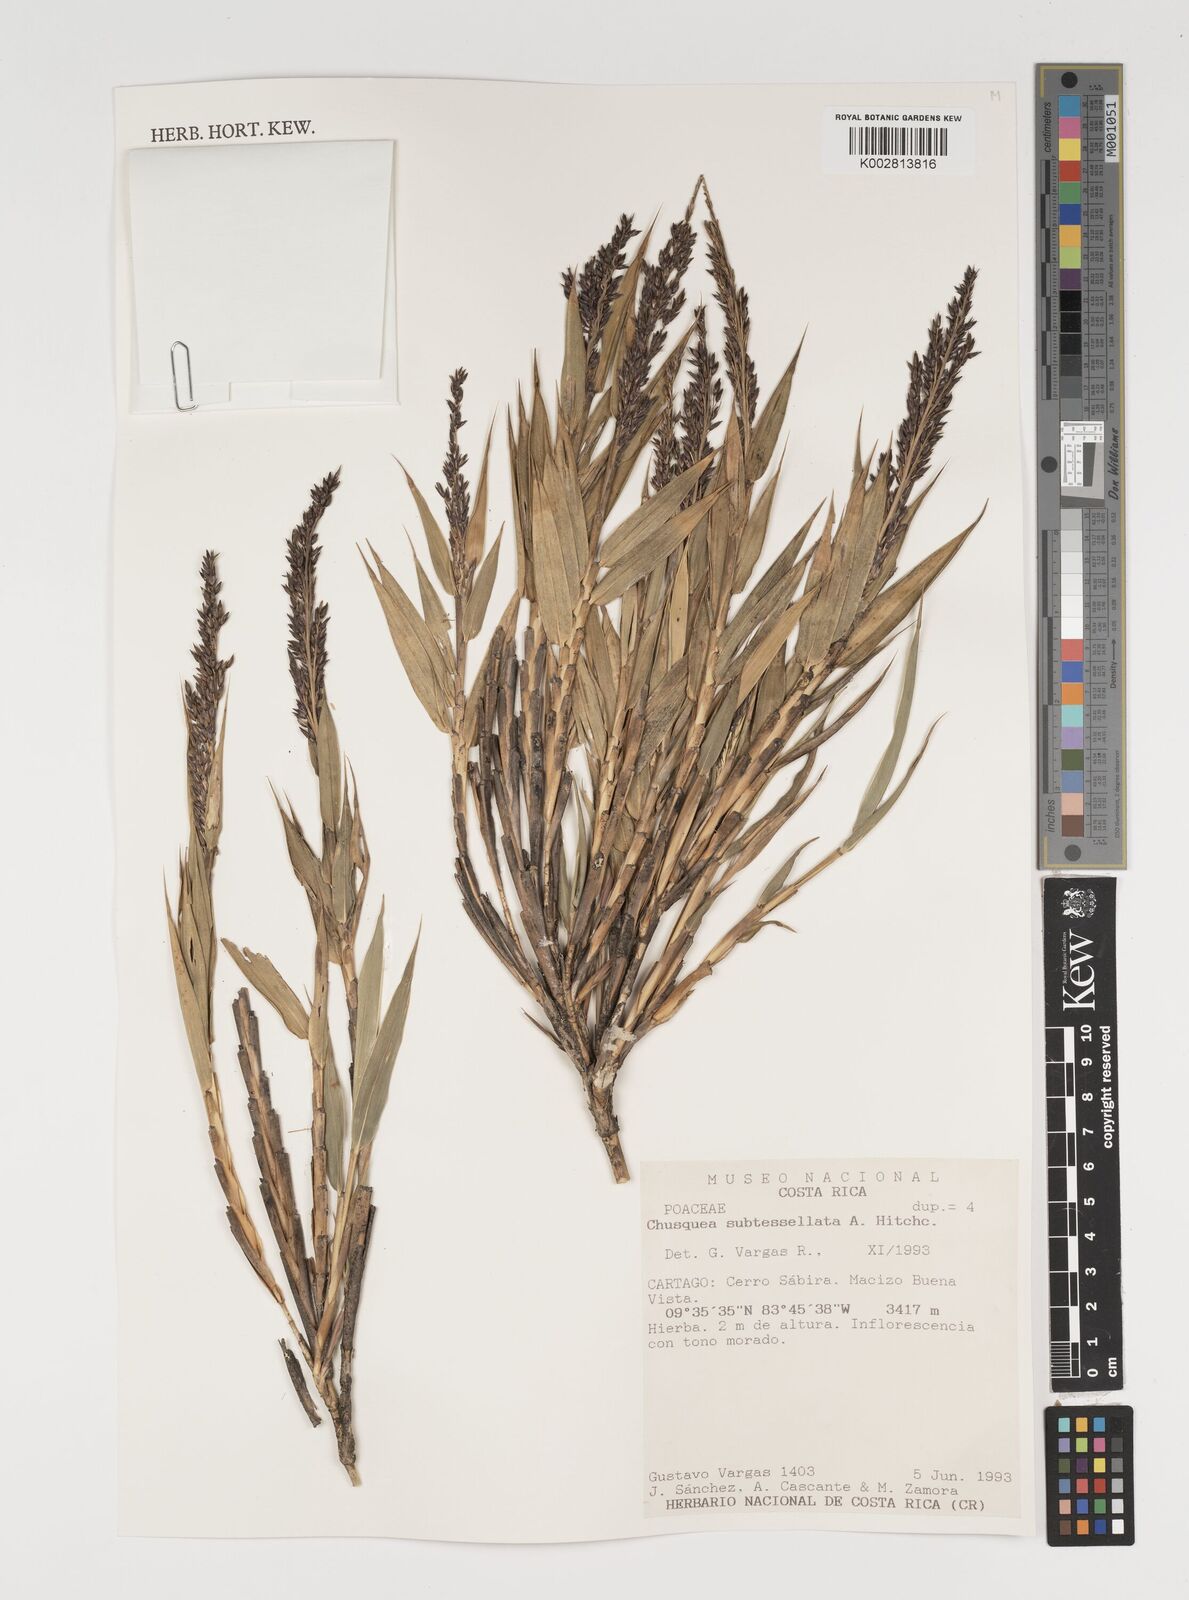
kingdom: Plantae
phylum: Tracheophyta
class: Liliopsida
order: Poales
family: Poaceae
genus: Chusquea
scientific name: Chusquea subtessellata
